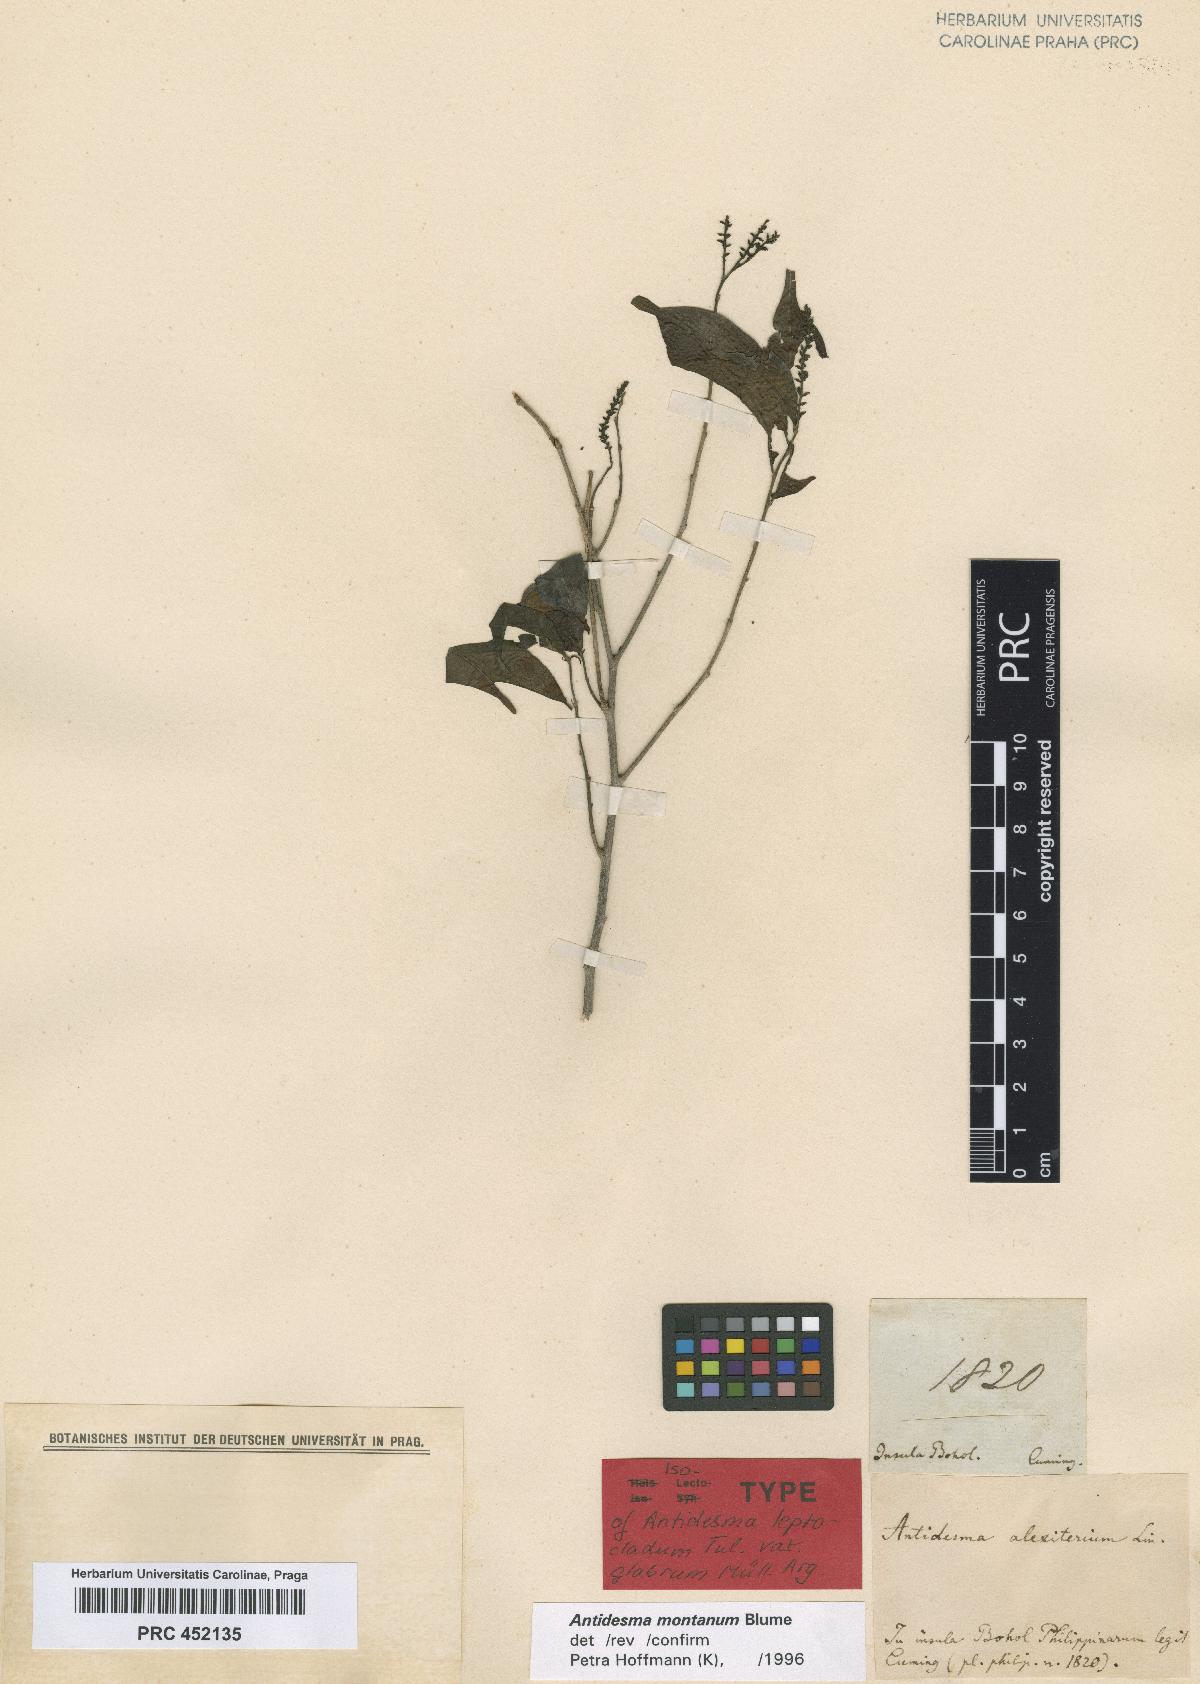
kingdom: Plantae
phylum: Tracheophyta
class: Magnoliopsida
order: Malpighiales
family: Phyllanthaceae
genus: Antidesma
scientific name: Antidesma montanum
